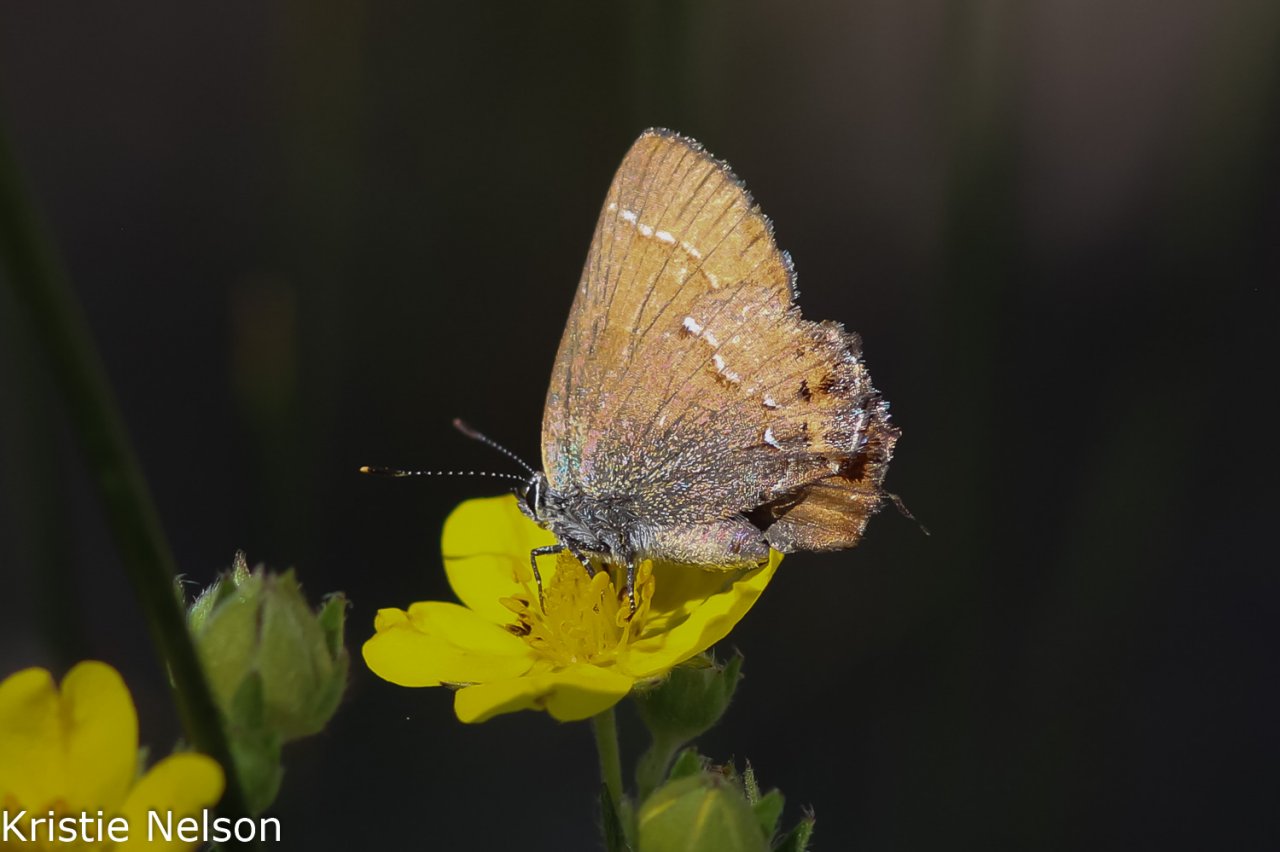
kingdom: Animalia
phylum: Arthropoda
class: Insecta
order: Lepidoptera
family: Lycaenidae
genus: Mitoura
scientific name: Mitoura gryneus
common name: Juniper Hairstreak
